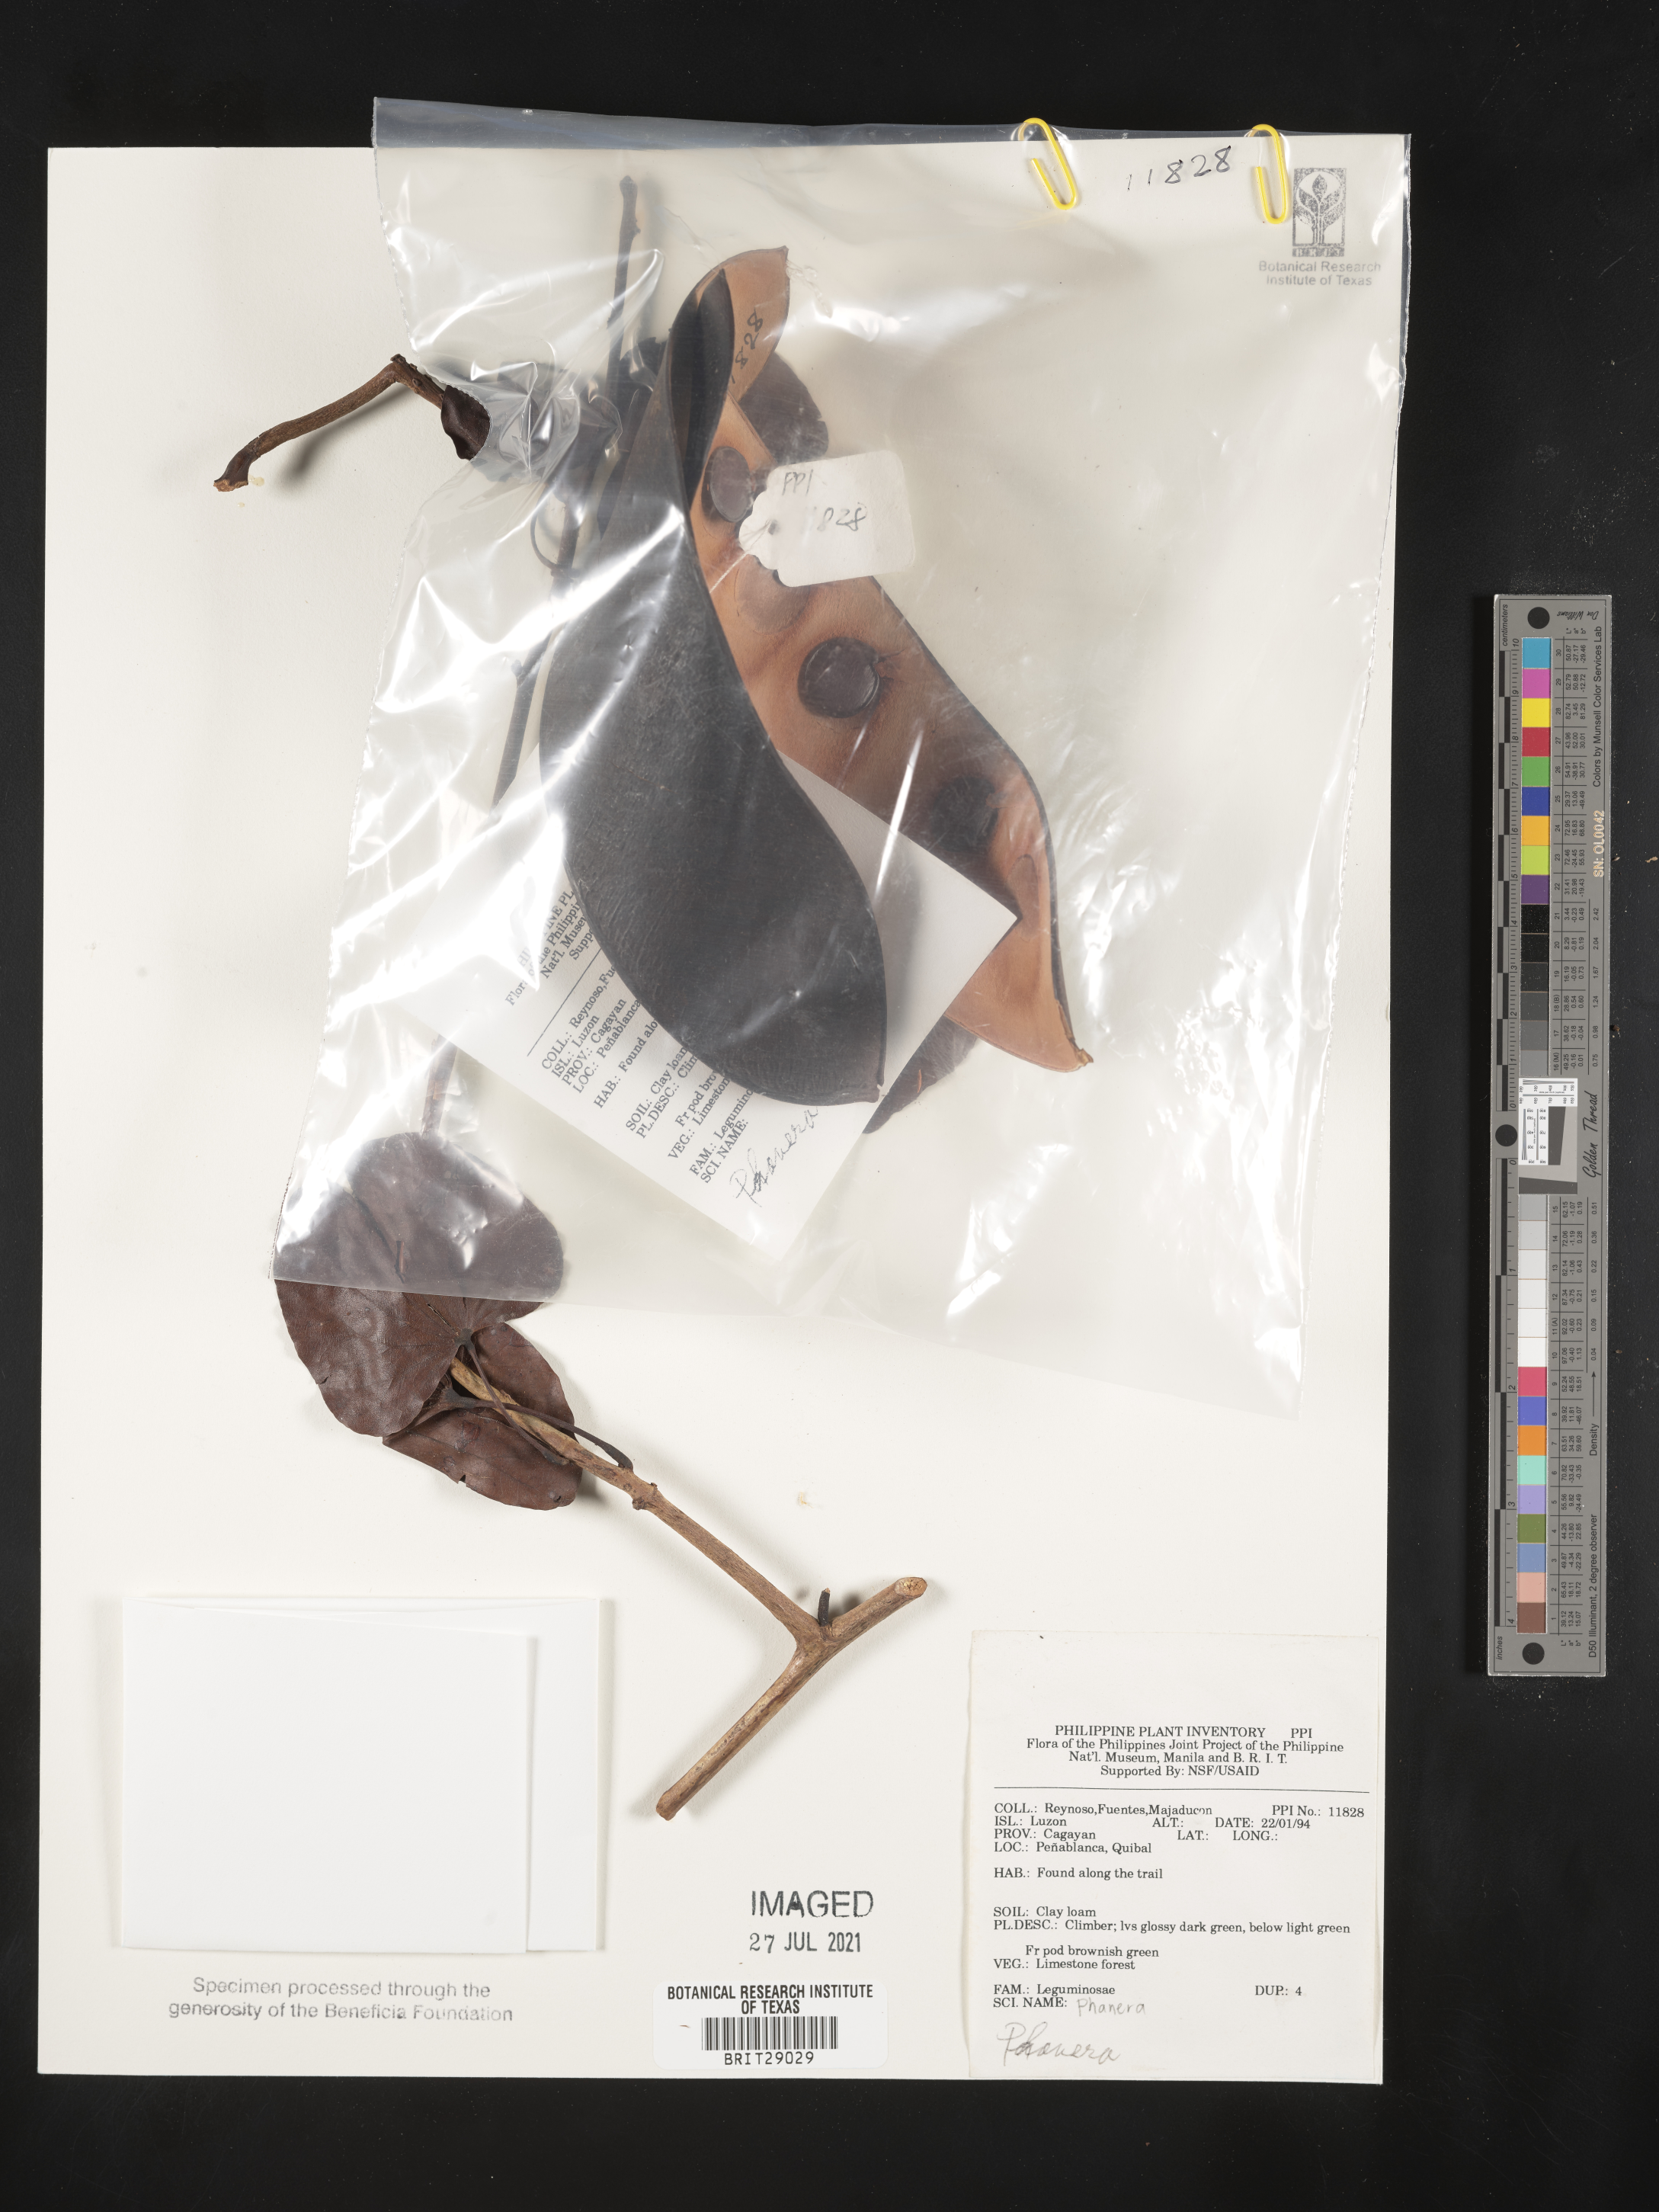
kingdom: Plantae
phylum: Tracheophyta
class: Magnoliopsida
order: Fabales
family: Fabaceae
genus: Phanera
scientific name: Phanera
